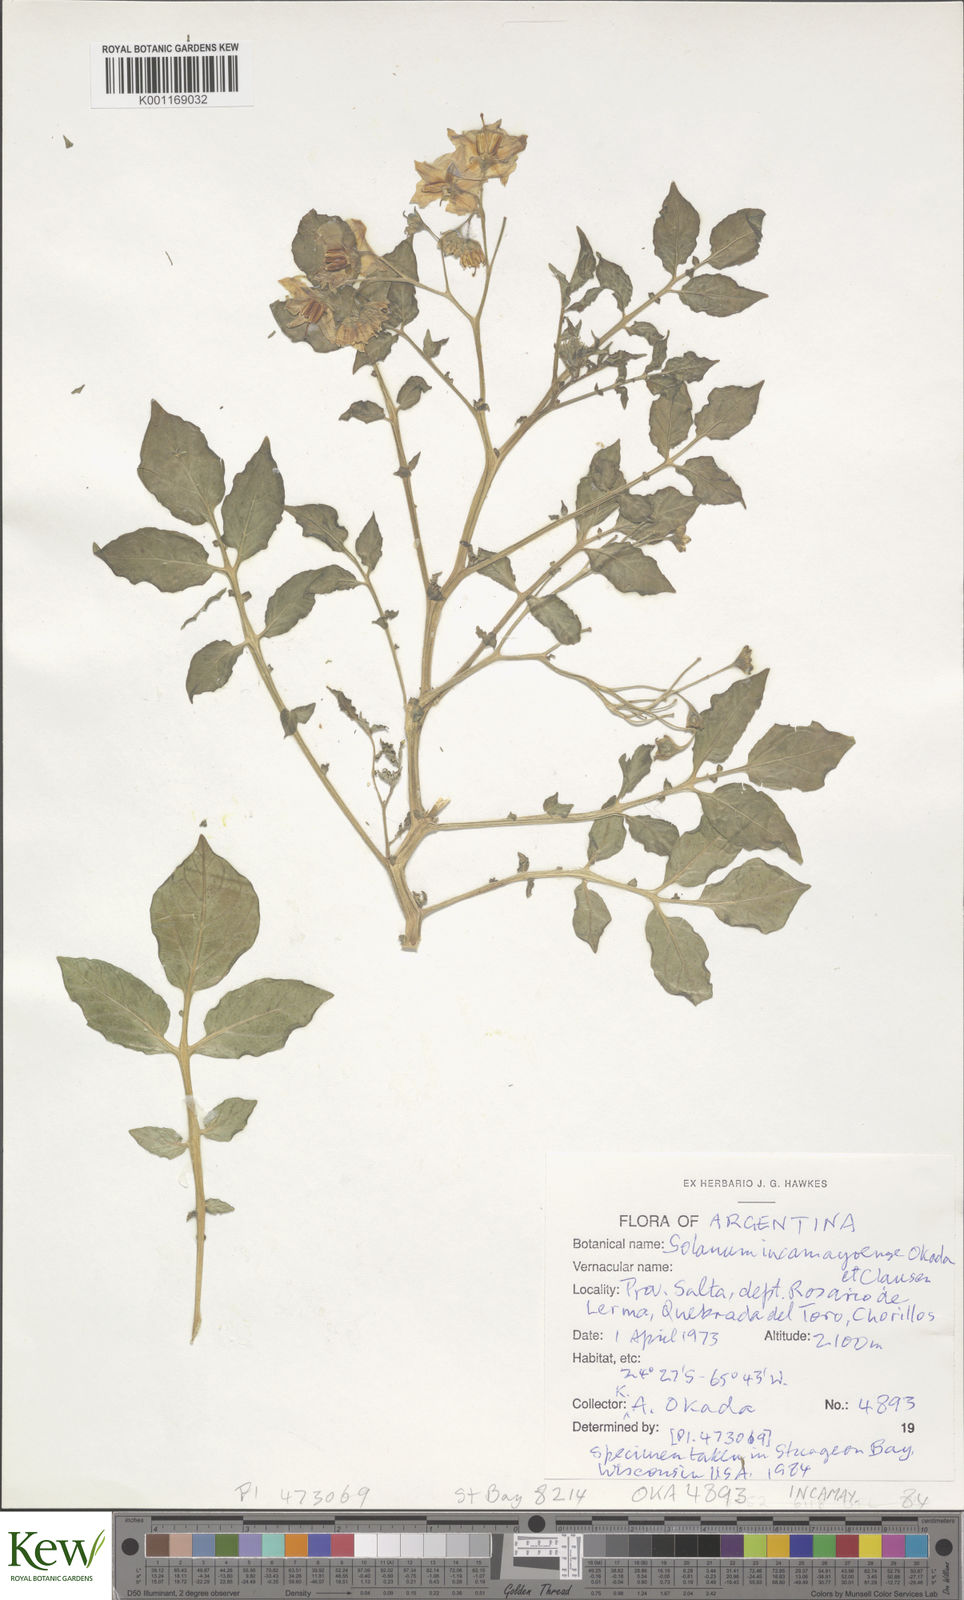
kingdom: Plantae
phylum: Tracheophyta
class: Magnoliopsida
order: Solanales
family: Solanaceae
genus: Solanum
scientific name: Solanum brevicaule
